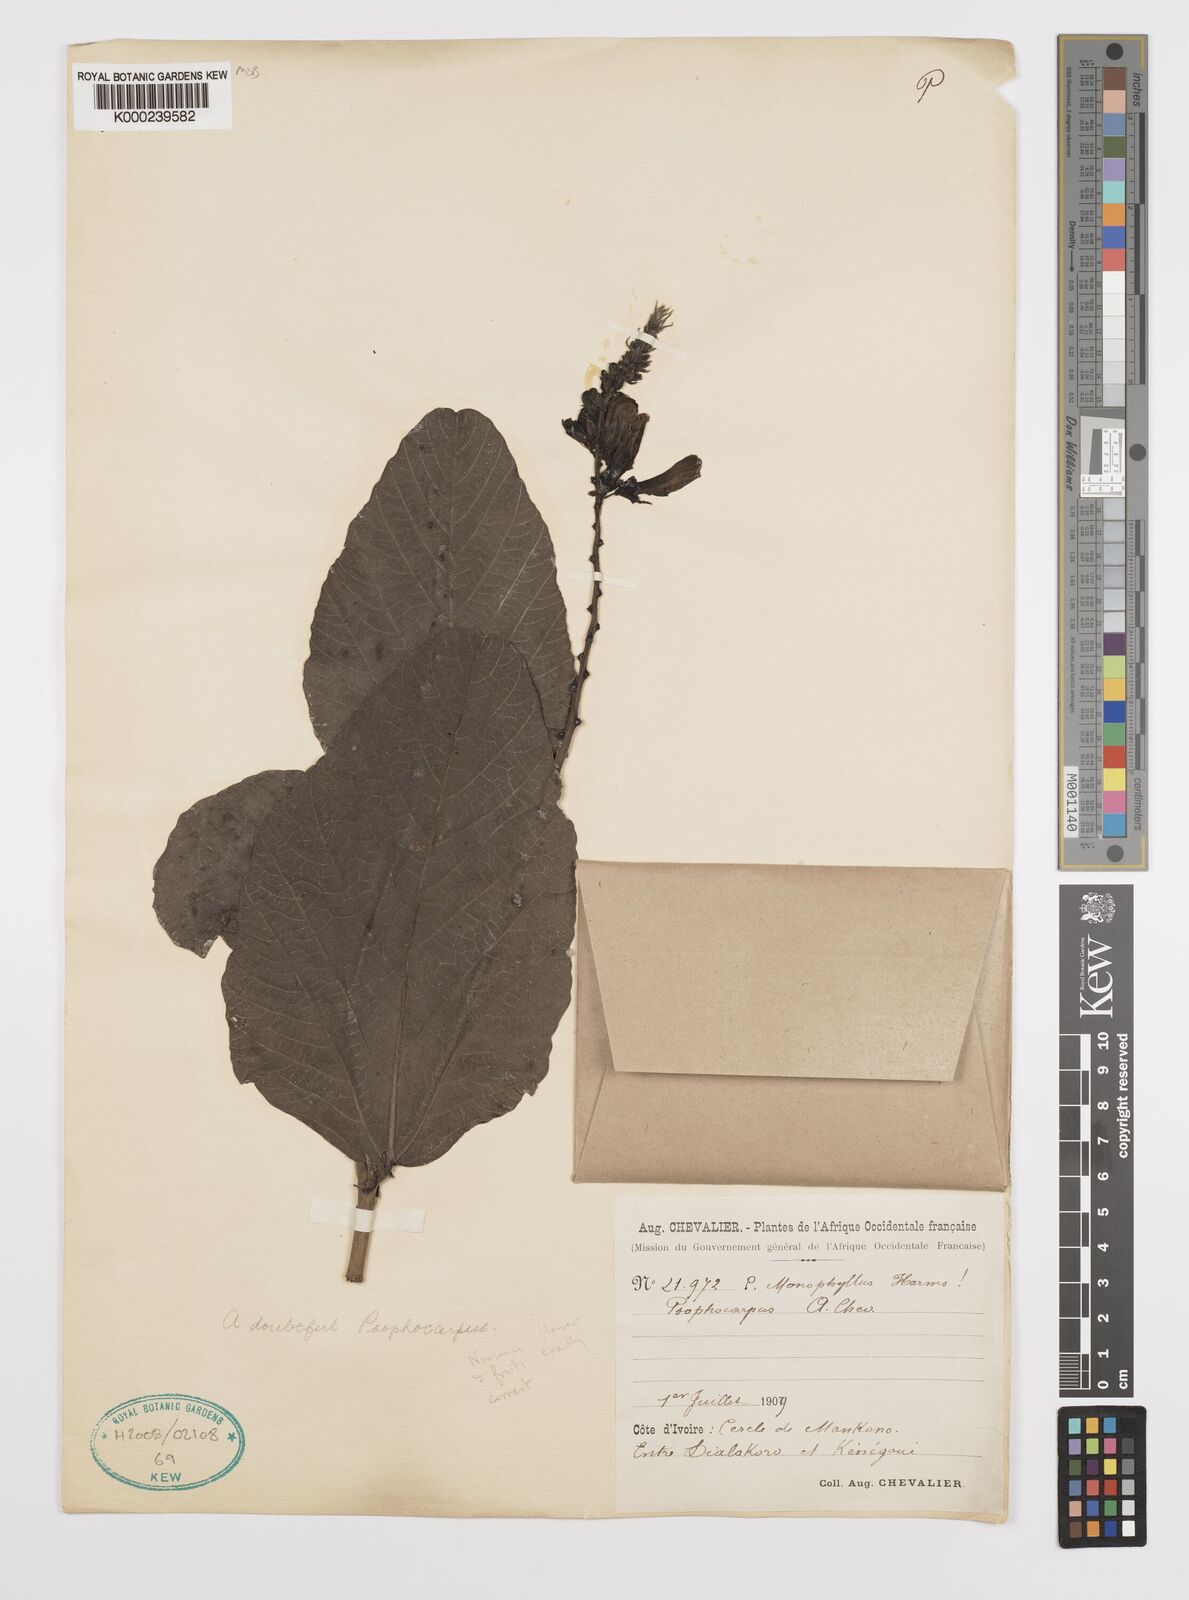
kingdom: Plantae
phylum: Tracheophyta
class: Magnoliopsida
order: Fabales
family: Fabaceae
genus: Psophocarpus
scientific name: Psophocarpus monophyllus
